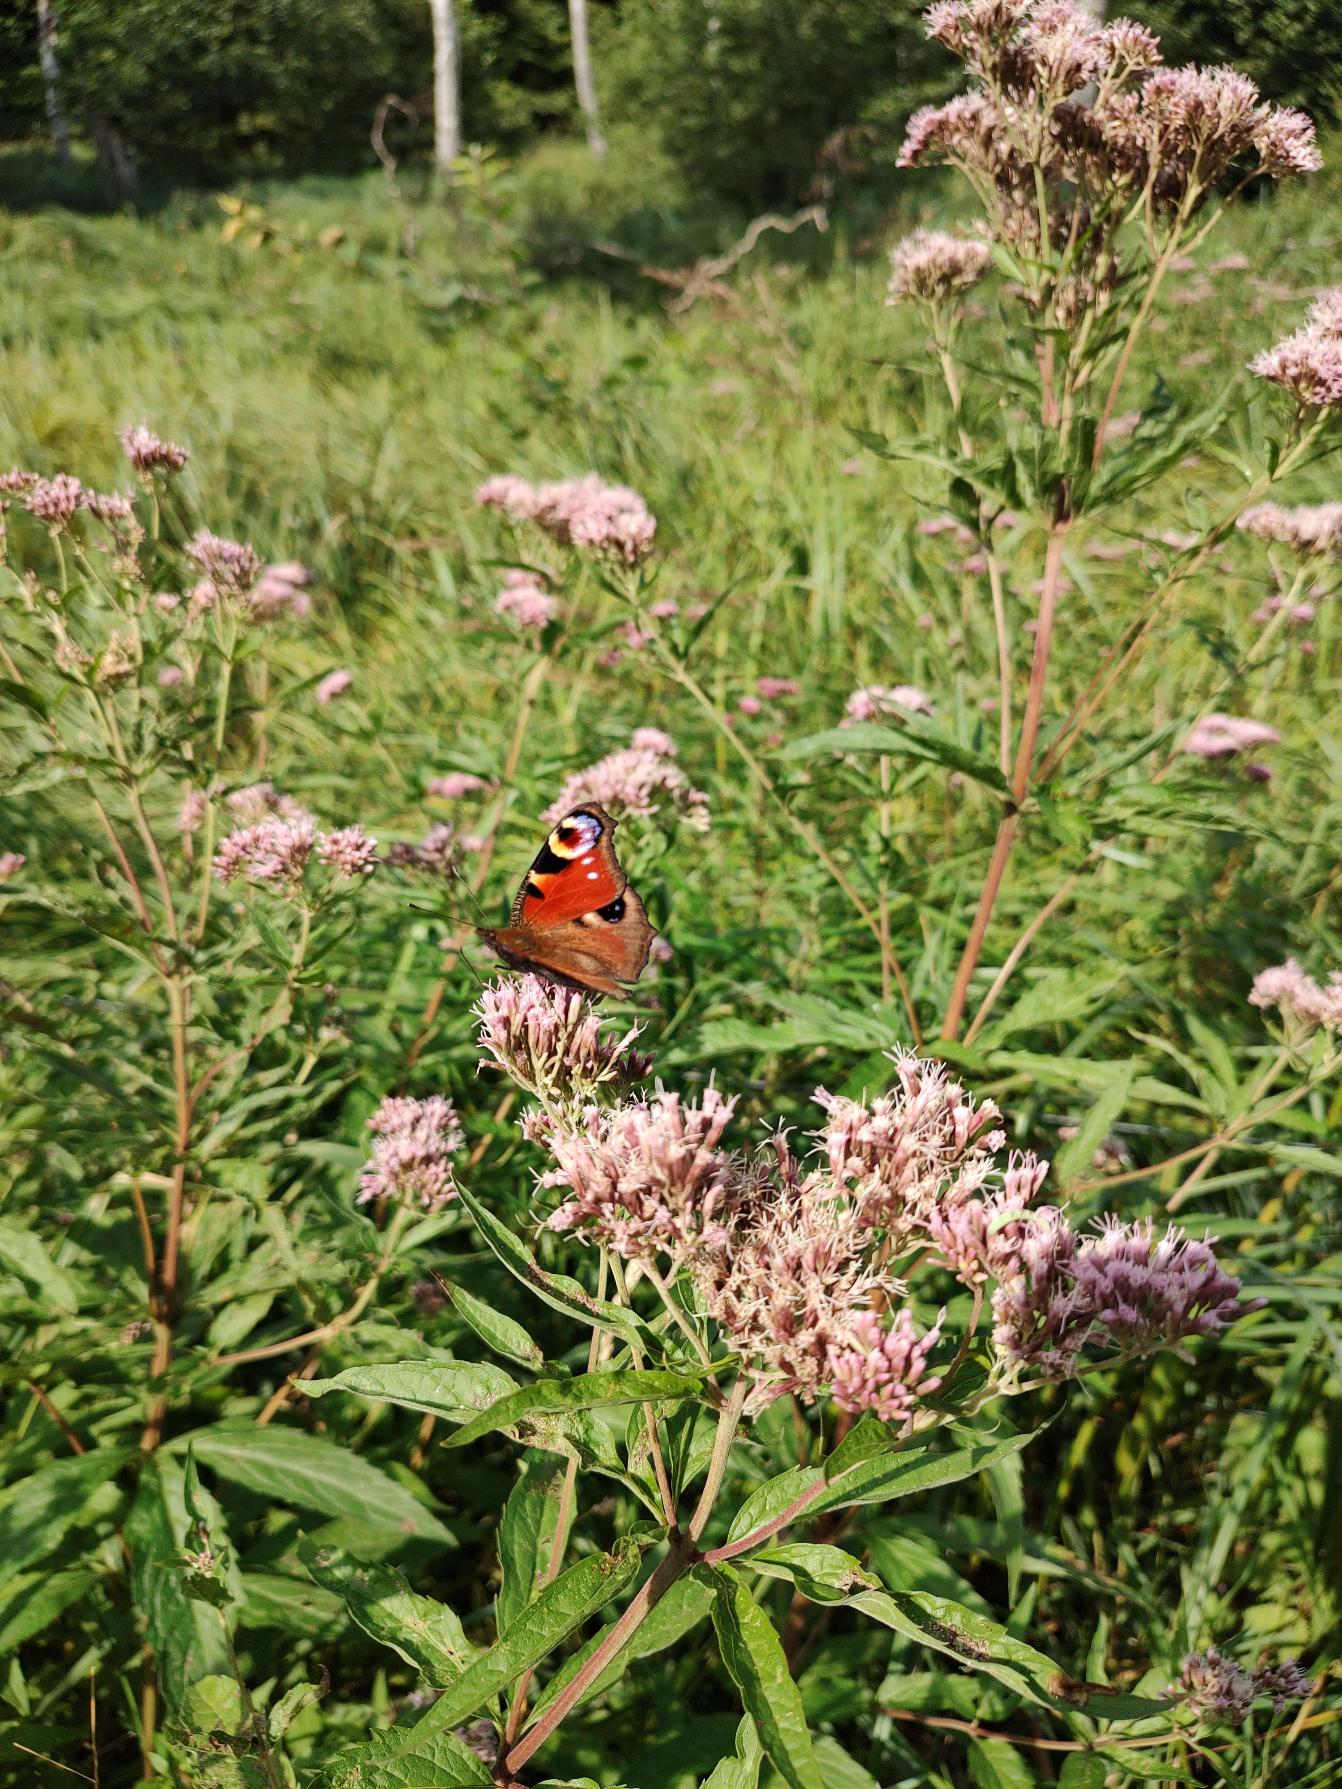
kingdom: Animalia
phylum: Arthropoda
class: Insecta
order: Lepidoptera
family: Nymphalidae
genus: Aglais
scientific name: Aglais io
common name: Dagpåfugleøje
